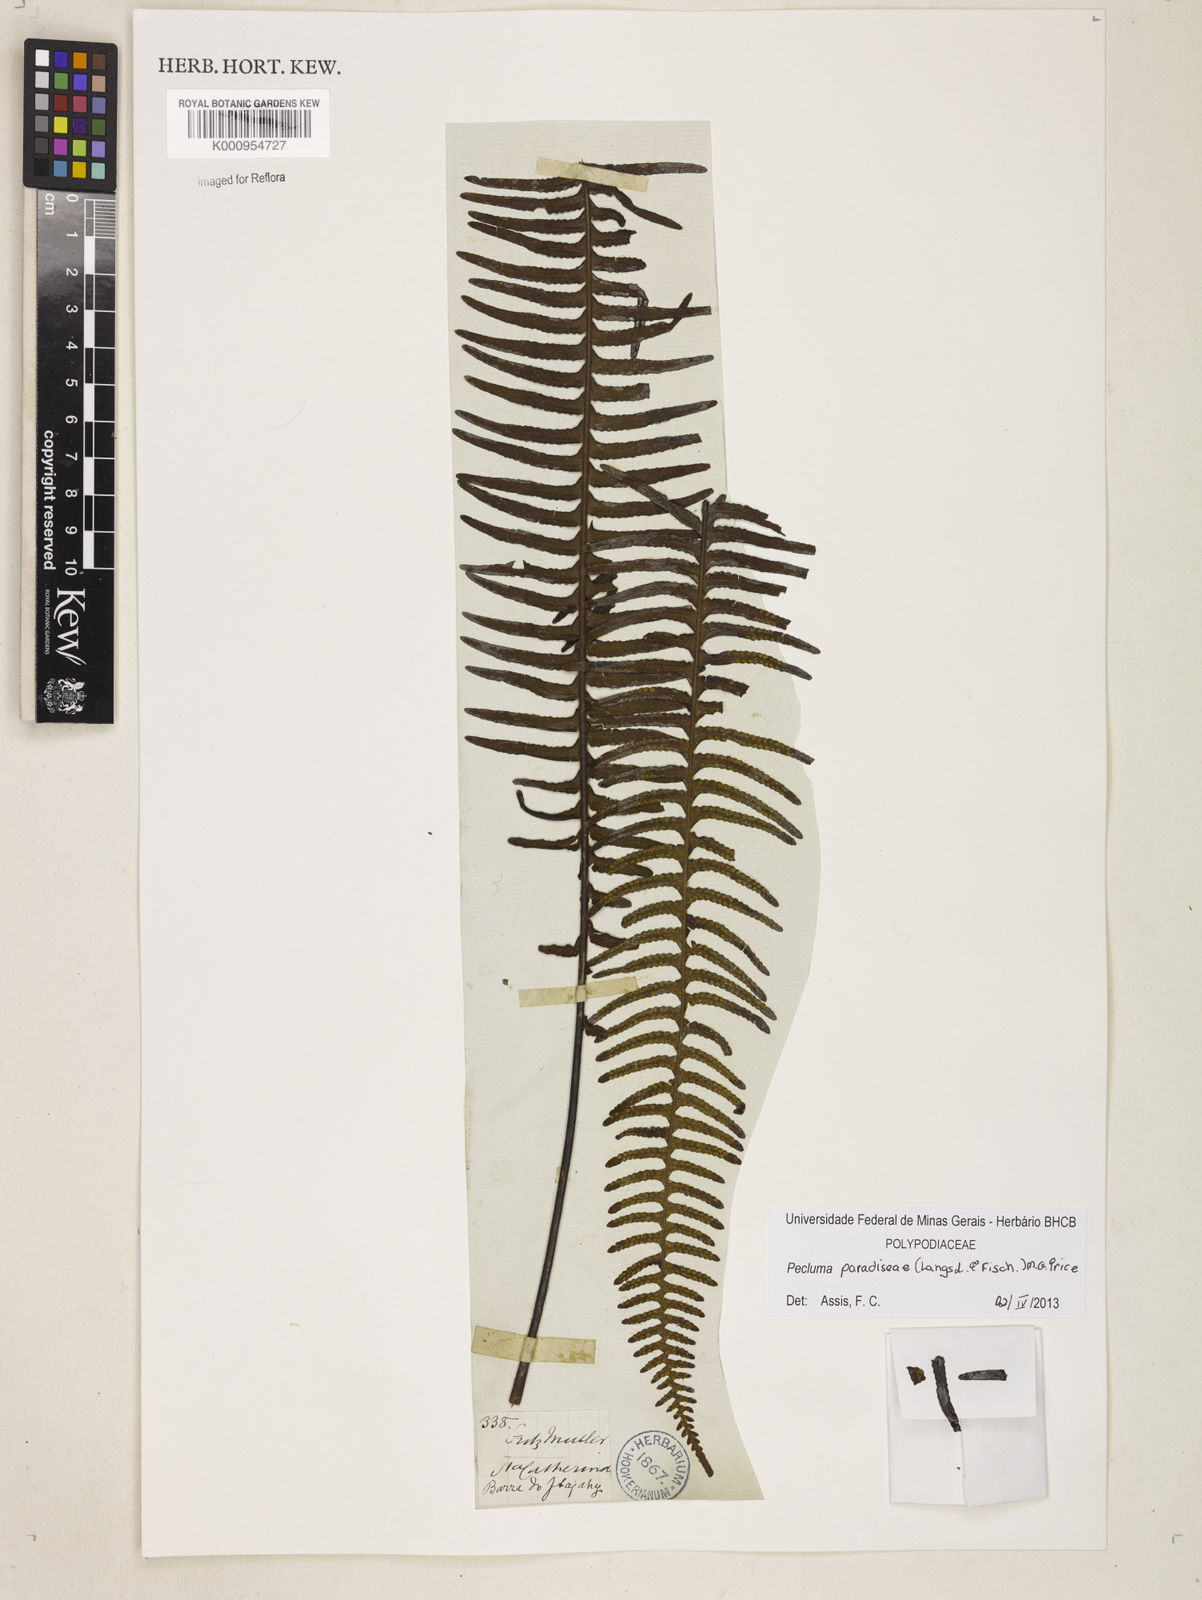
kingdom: Plantae
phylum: Tracheophyta
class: Polypodiopsida
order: Polypodiales
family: Polypodiaceae
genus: Pecluma
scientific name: Pecluma paradiseae
